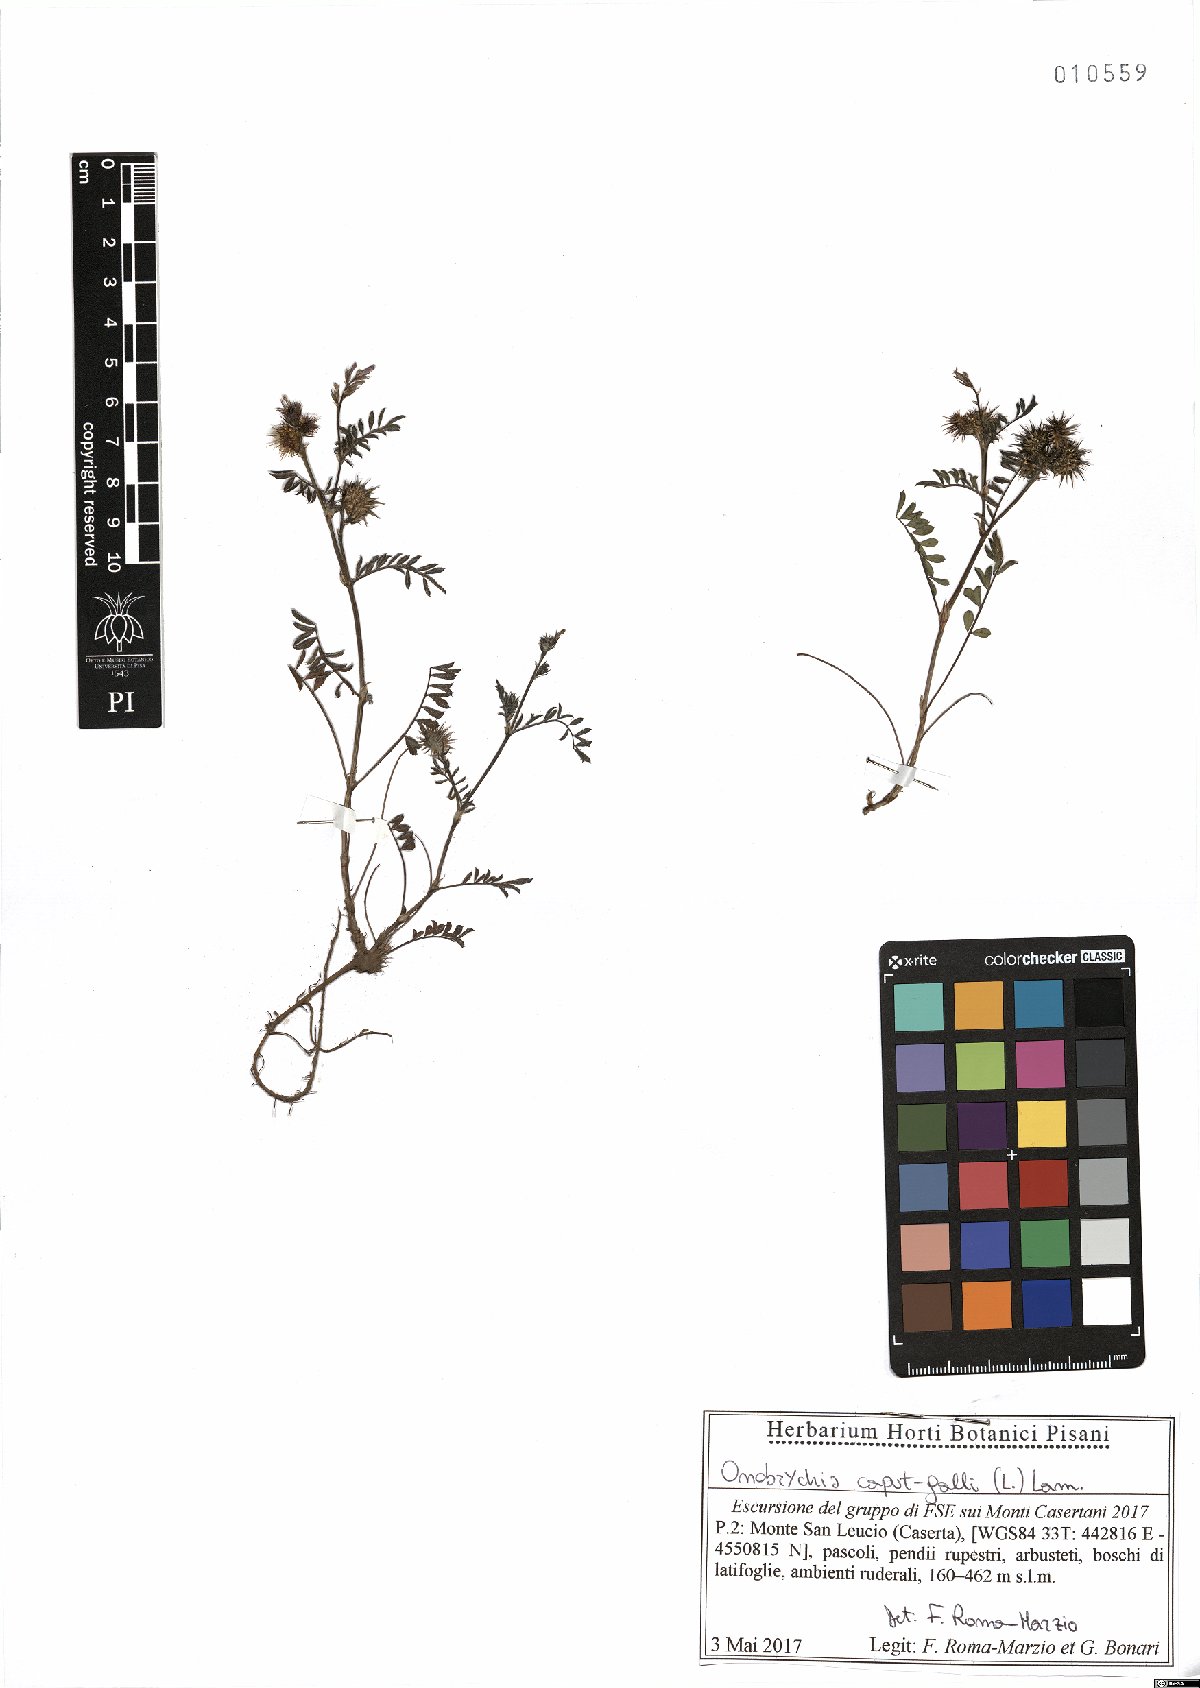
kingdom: Plantae
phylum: Tracheophyta
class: Magnoliopsida
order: Fabales
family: Fabaceae
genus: Onobrychis
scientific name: Onobrychis caput-galli
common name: Cockscomb sainfoin
